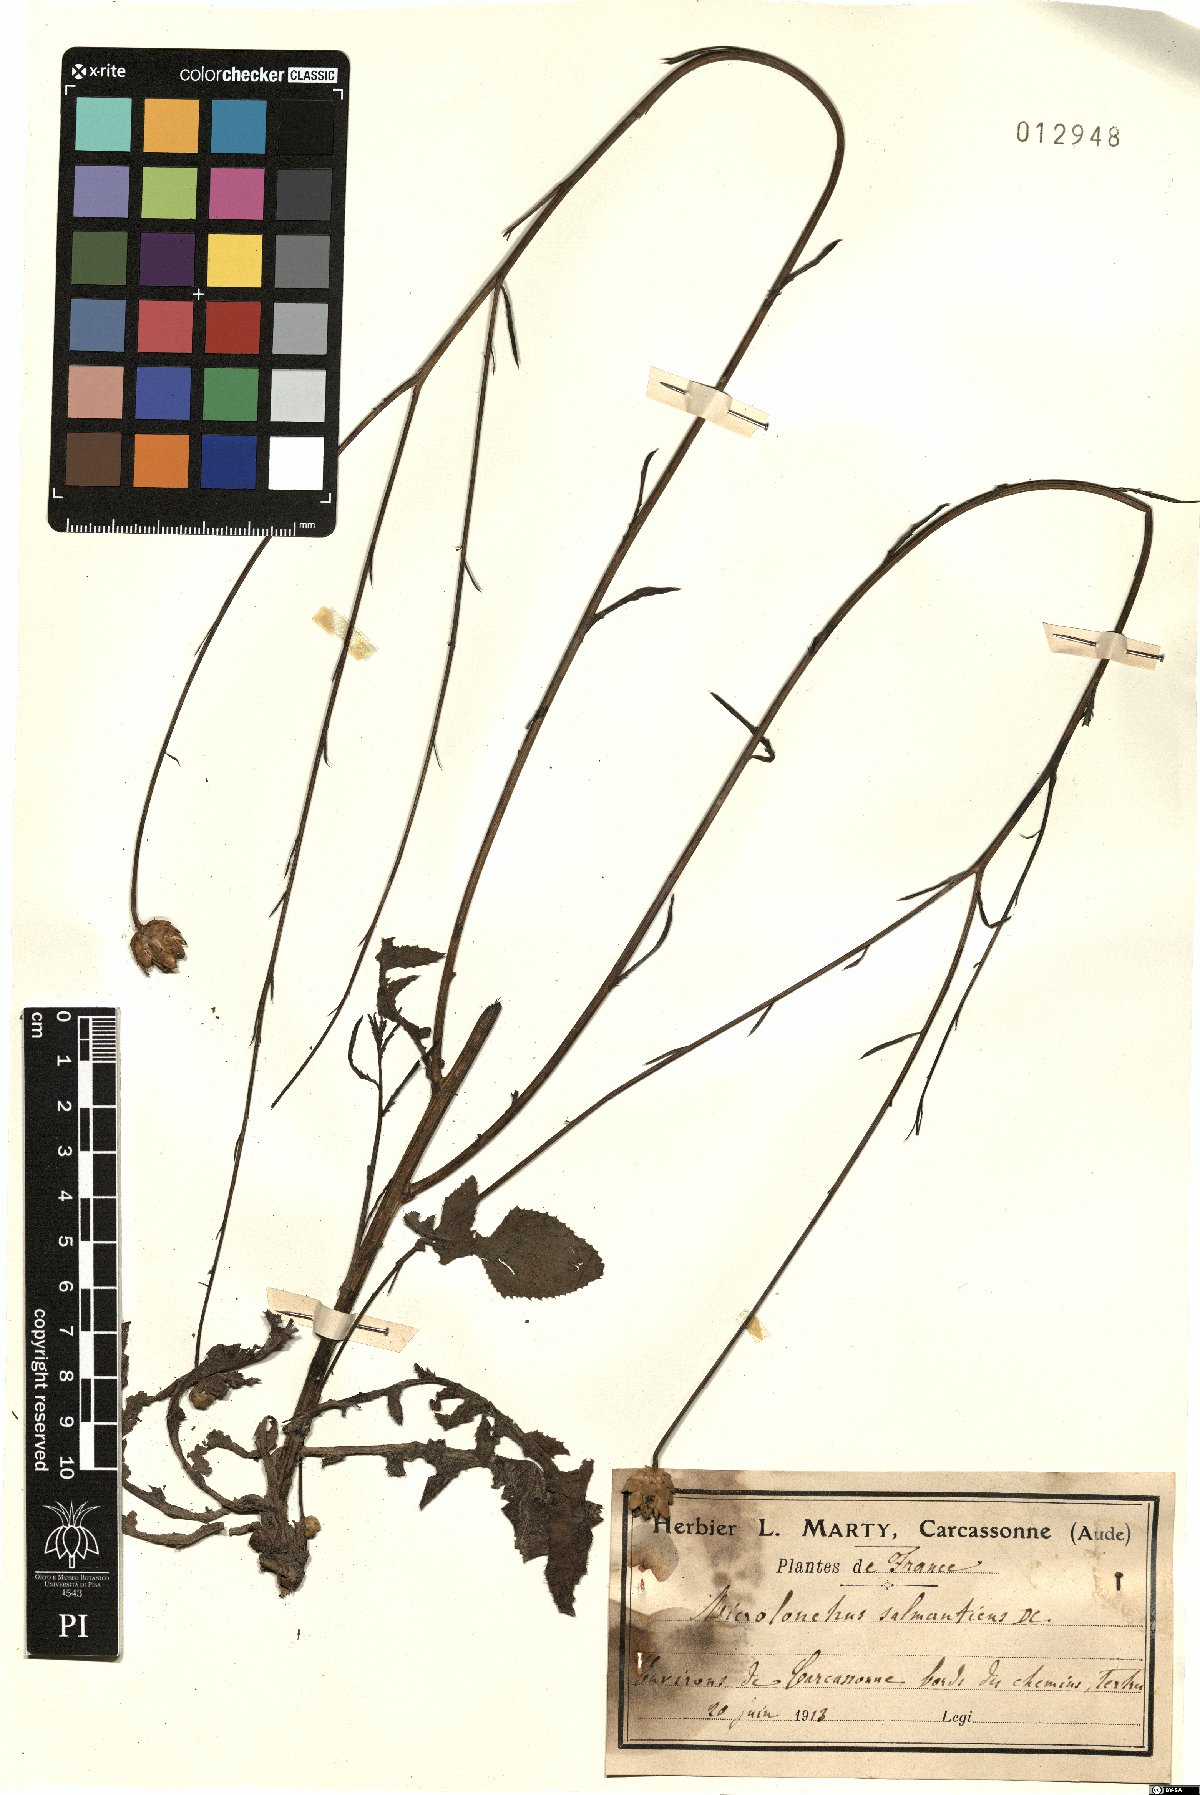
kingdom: Plantae
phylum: Tracheophyta
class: Magnoliopsida
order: Asterales
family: Asteraceae
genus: Mantisalca
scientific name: Mantisalca salmantica
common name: Dagger flower
